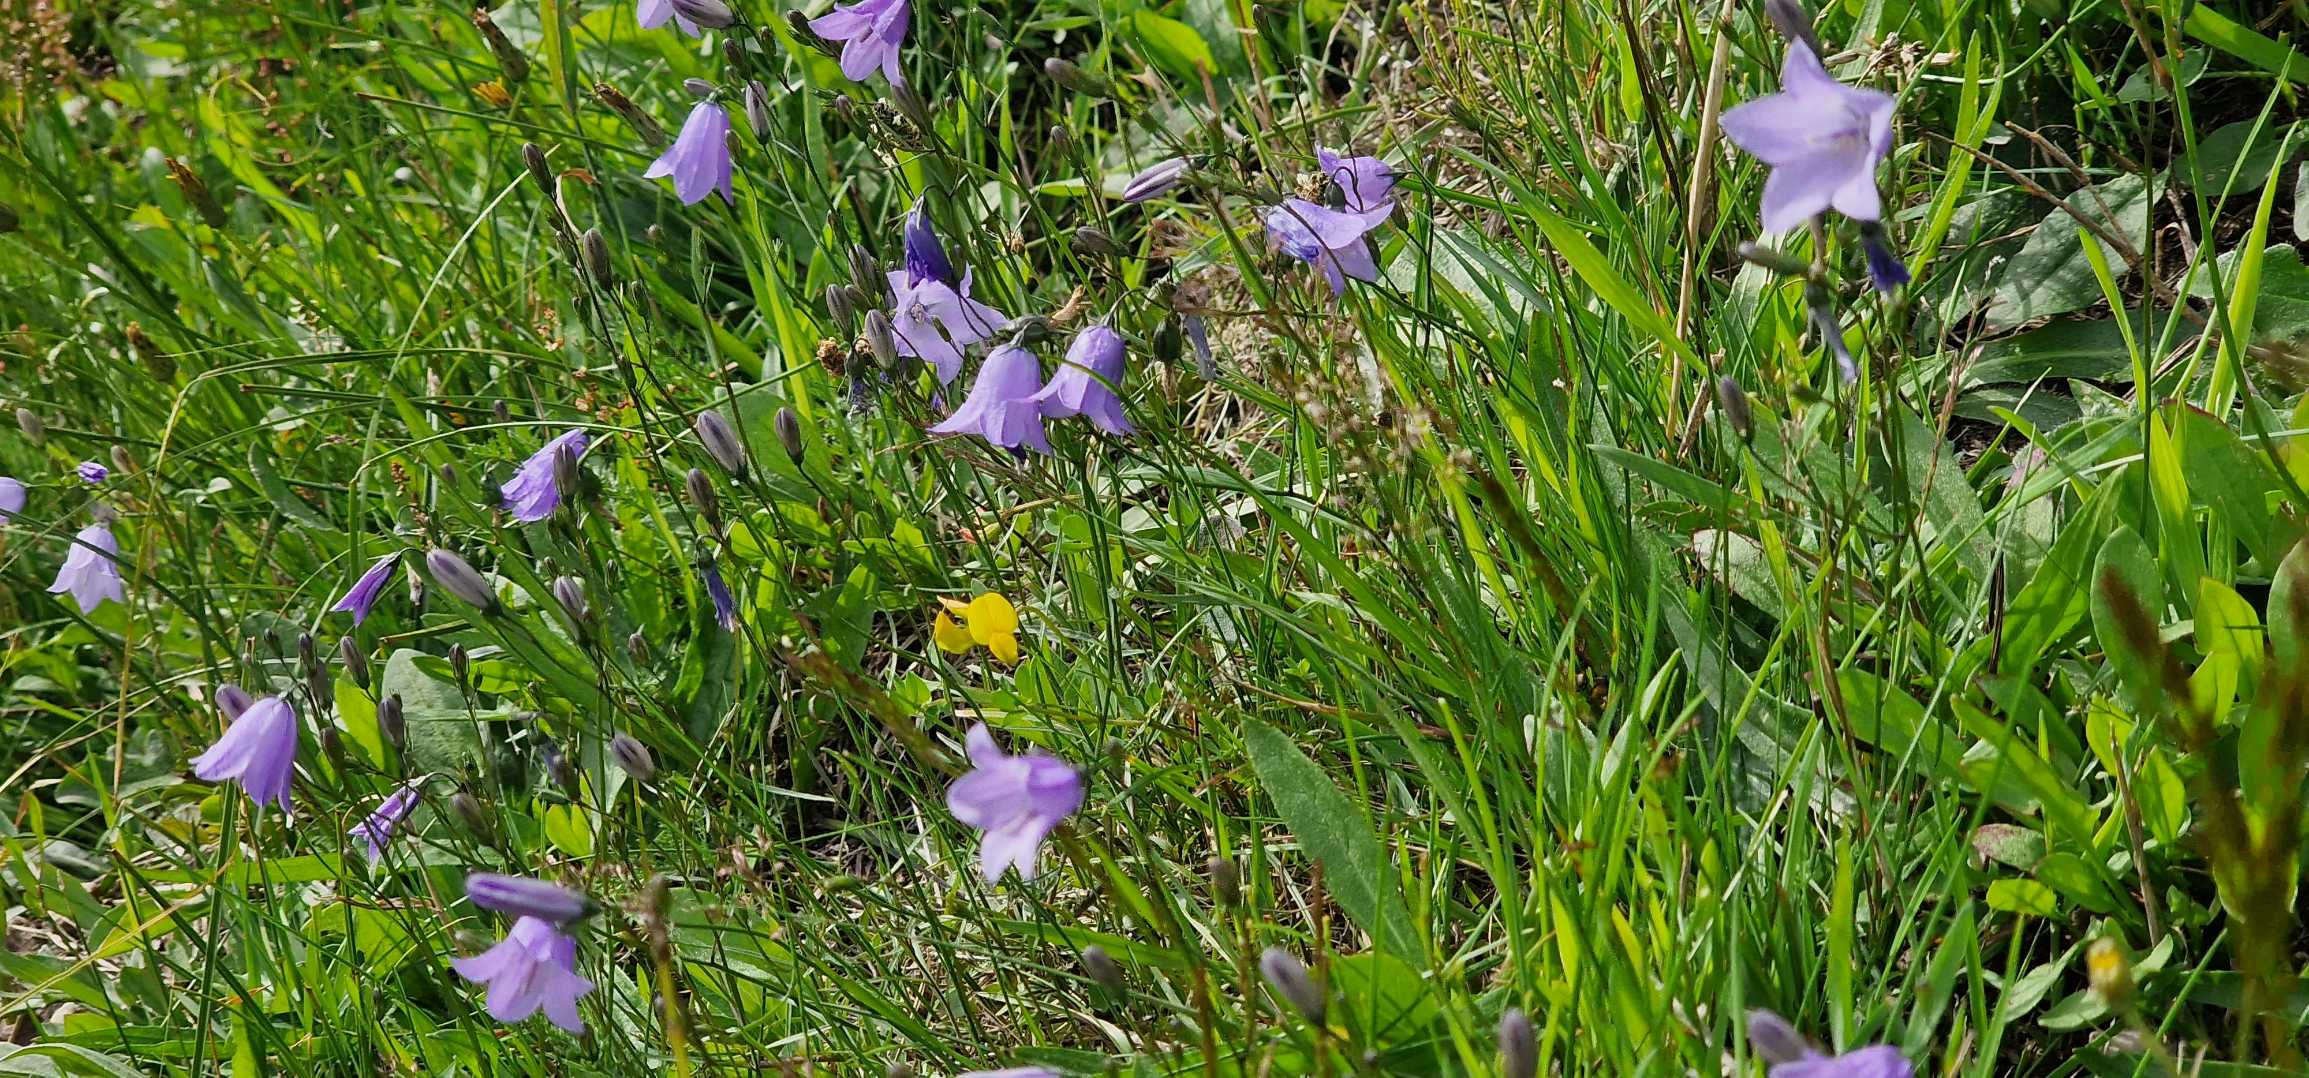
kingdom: Plantae
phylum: Tracheophyta
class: Magnoliopsida
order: Asterales
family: Campanulaceae
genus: Campanula
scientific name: Campanula rotundifolia
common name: Liden klokke
